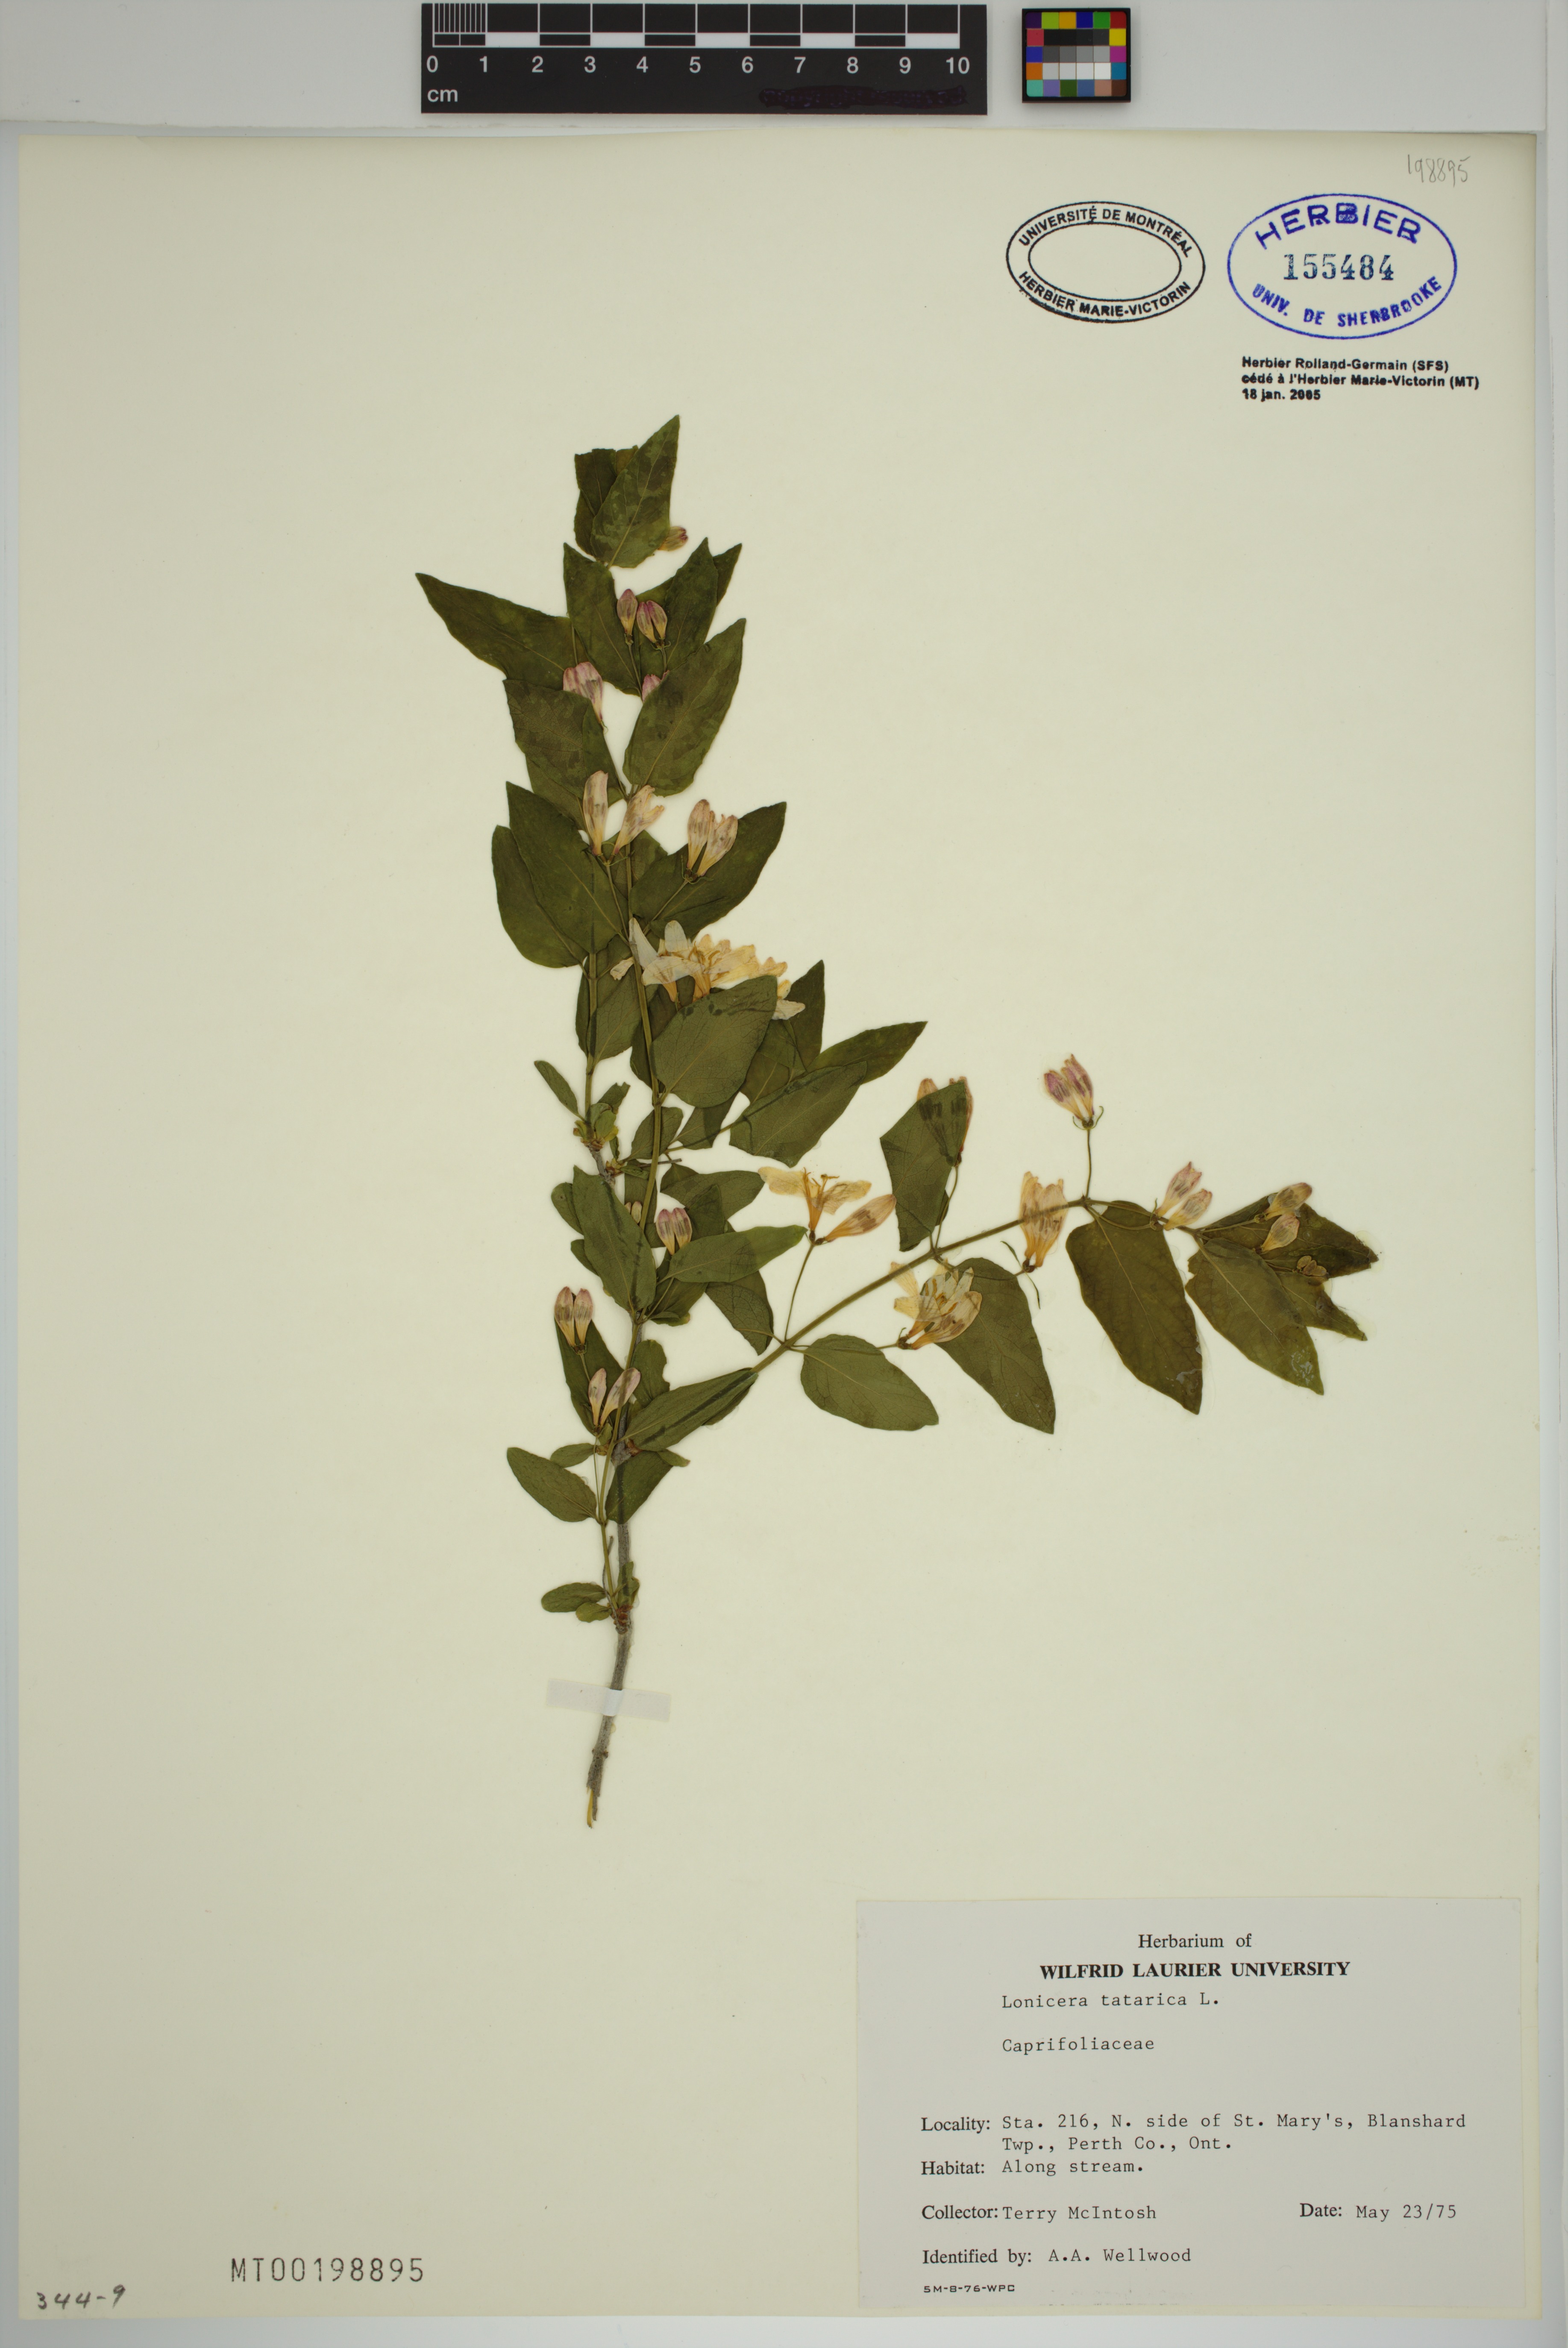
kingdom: Plantae
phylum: Tracheophyta
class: Magnoliopsida
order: Dipsacales
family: Caprifoliaceae
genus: Lonicera
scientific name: Lonicera tatarica
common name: Tatarian honeysuckle
